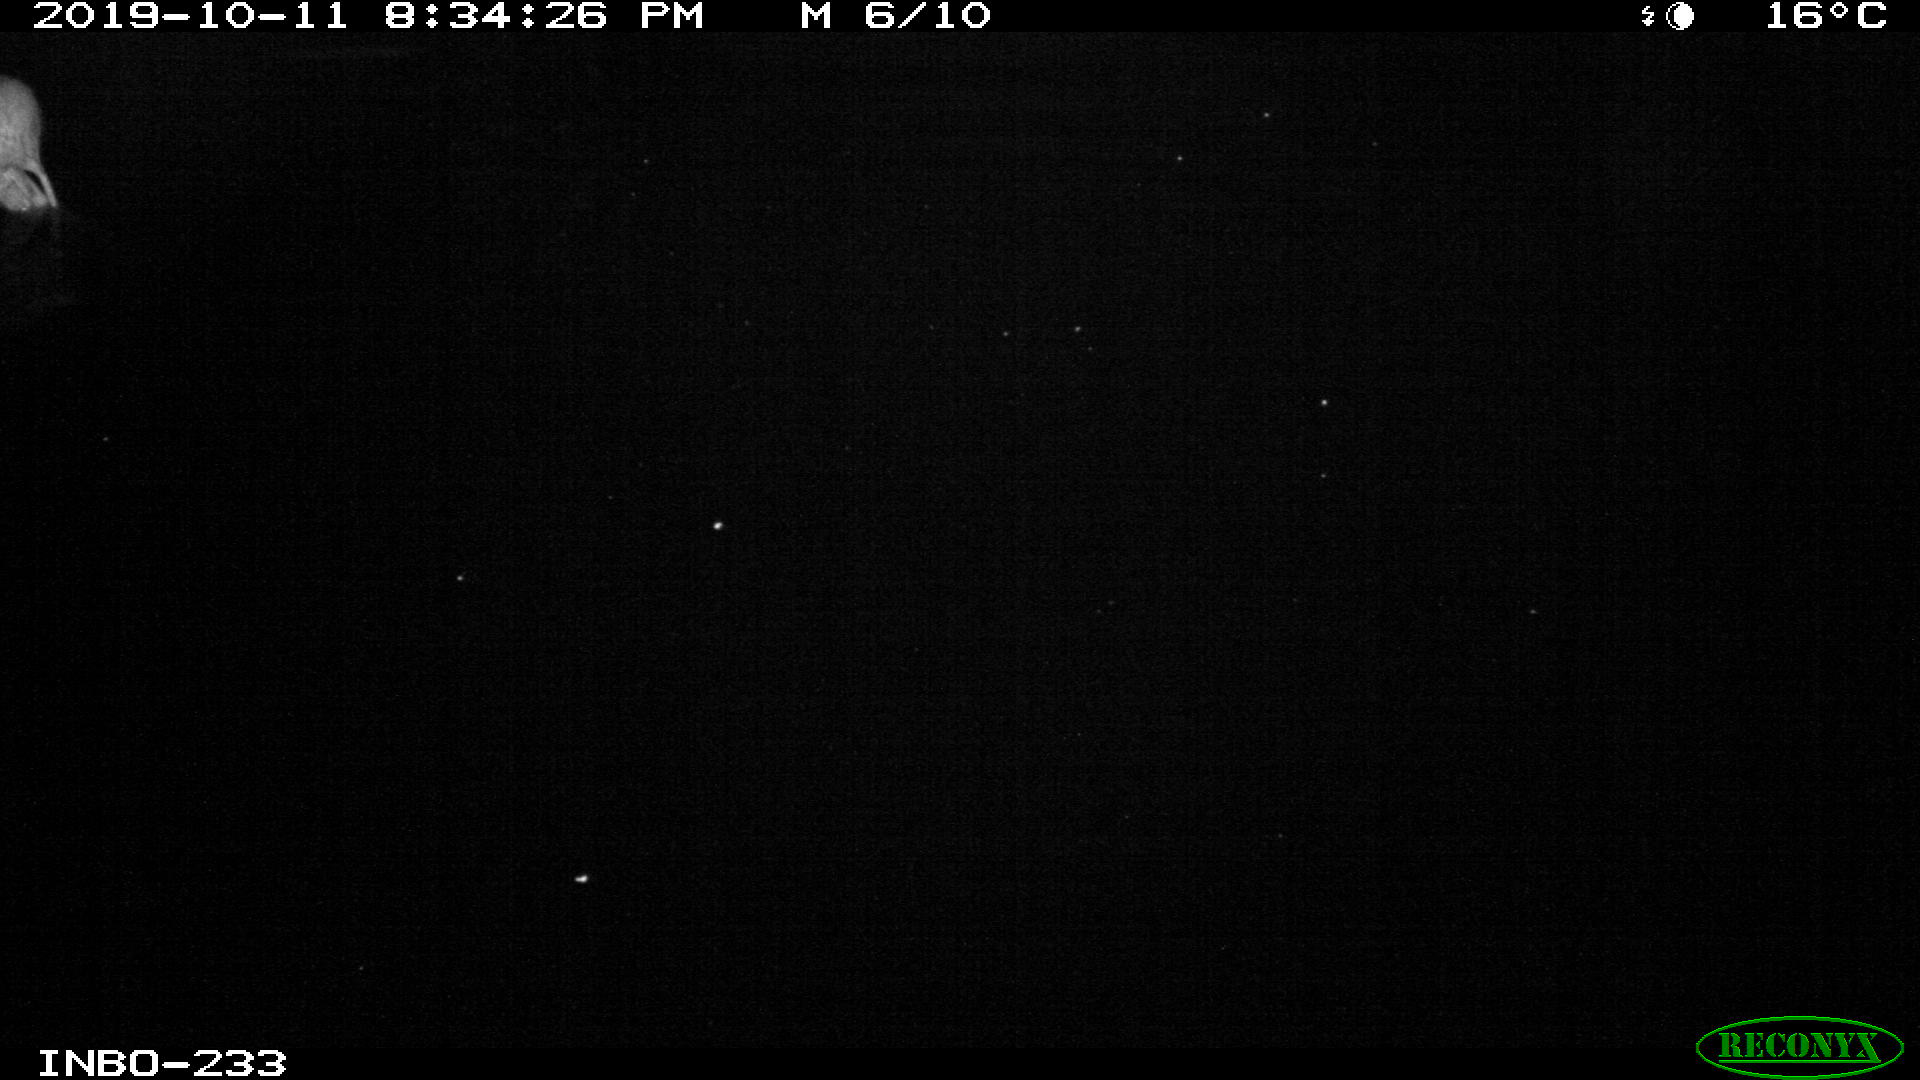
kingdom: Animalia
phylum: Chordata
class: Mammalia
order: Rodentia
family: Muridae
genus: Rattus
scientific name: Rattus norvegicus
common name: Brown rat
